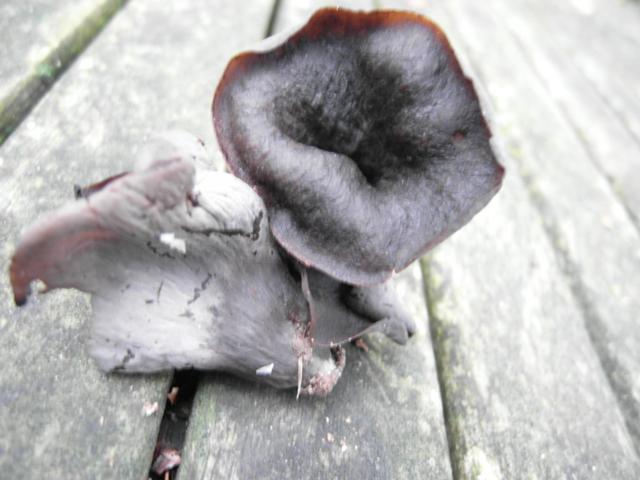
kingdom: Fungi
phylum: Basidiomycota
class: Agaricomycetes
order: Cantharellales
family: Hydnaceae
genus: Craterellus
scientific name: Craterellus cornucopioides
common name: trompetsvamp
